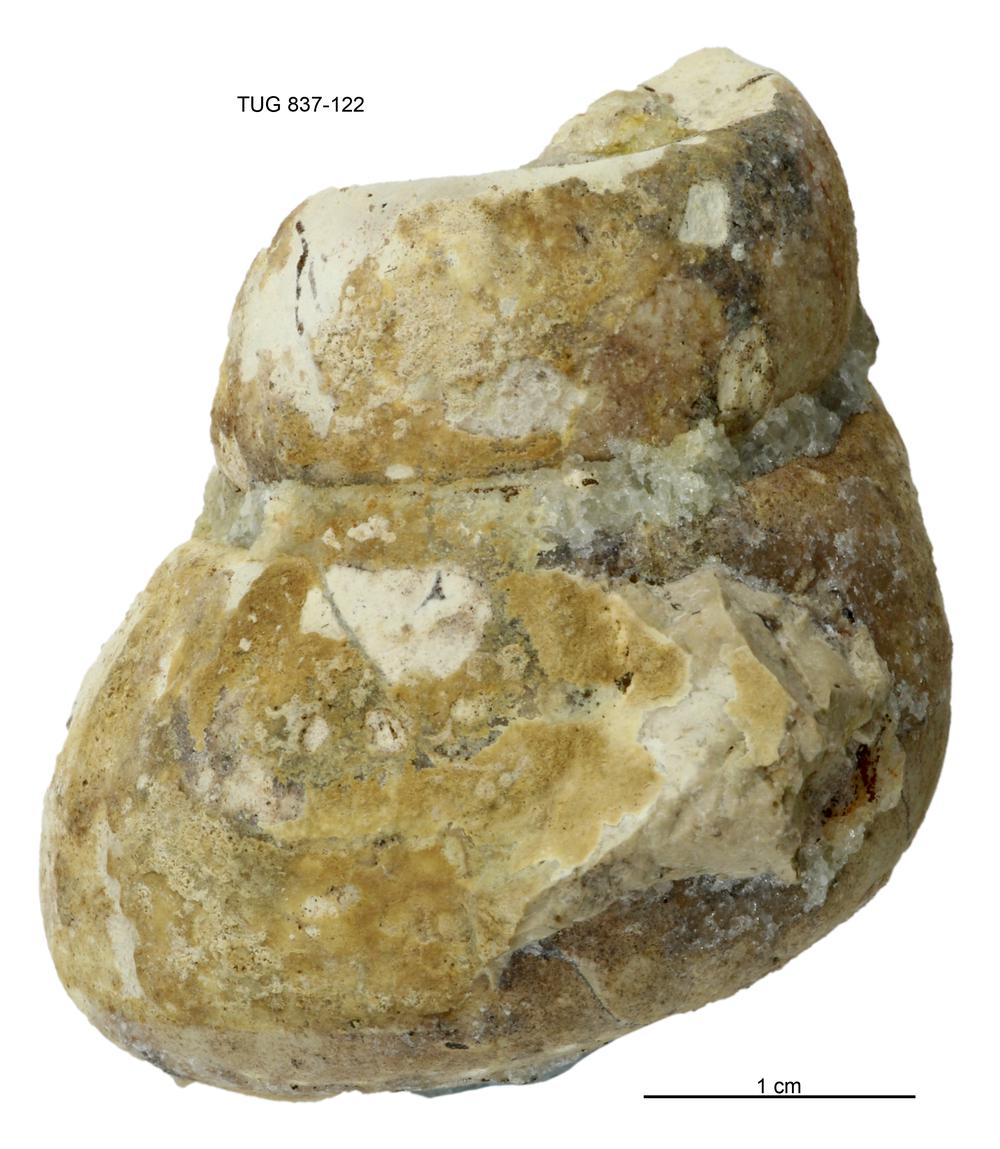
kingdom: Animalia
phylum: Mollusca
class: Gastropoda
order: Pleurotomariida
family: Murchisoniidae
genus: Murchisonia
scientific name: Murchisonia insignis
